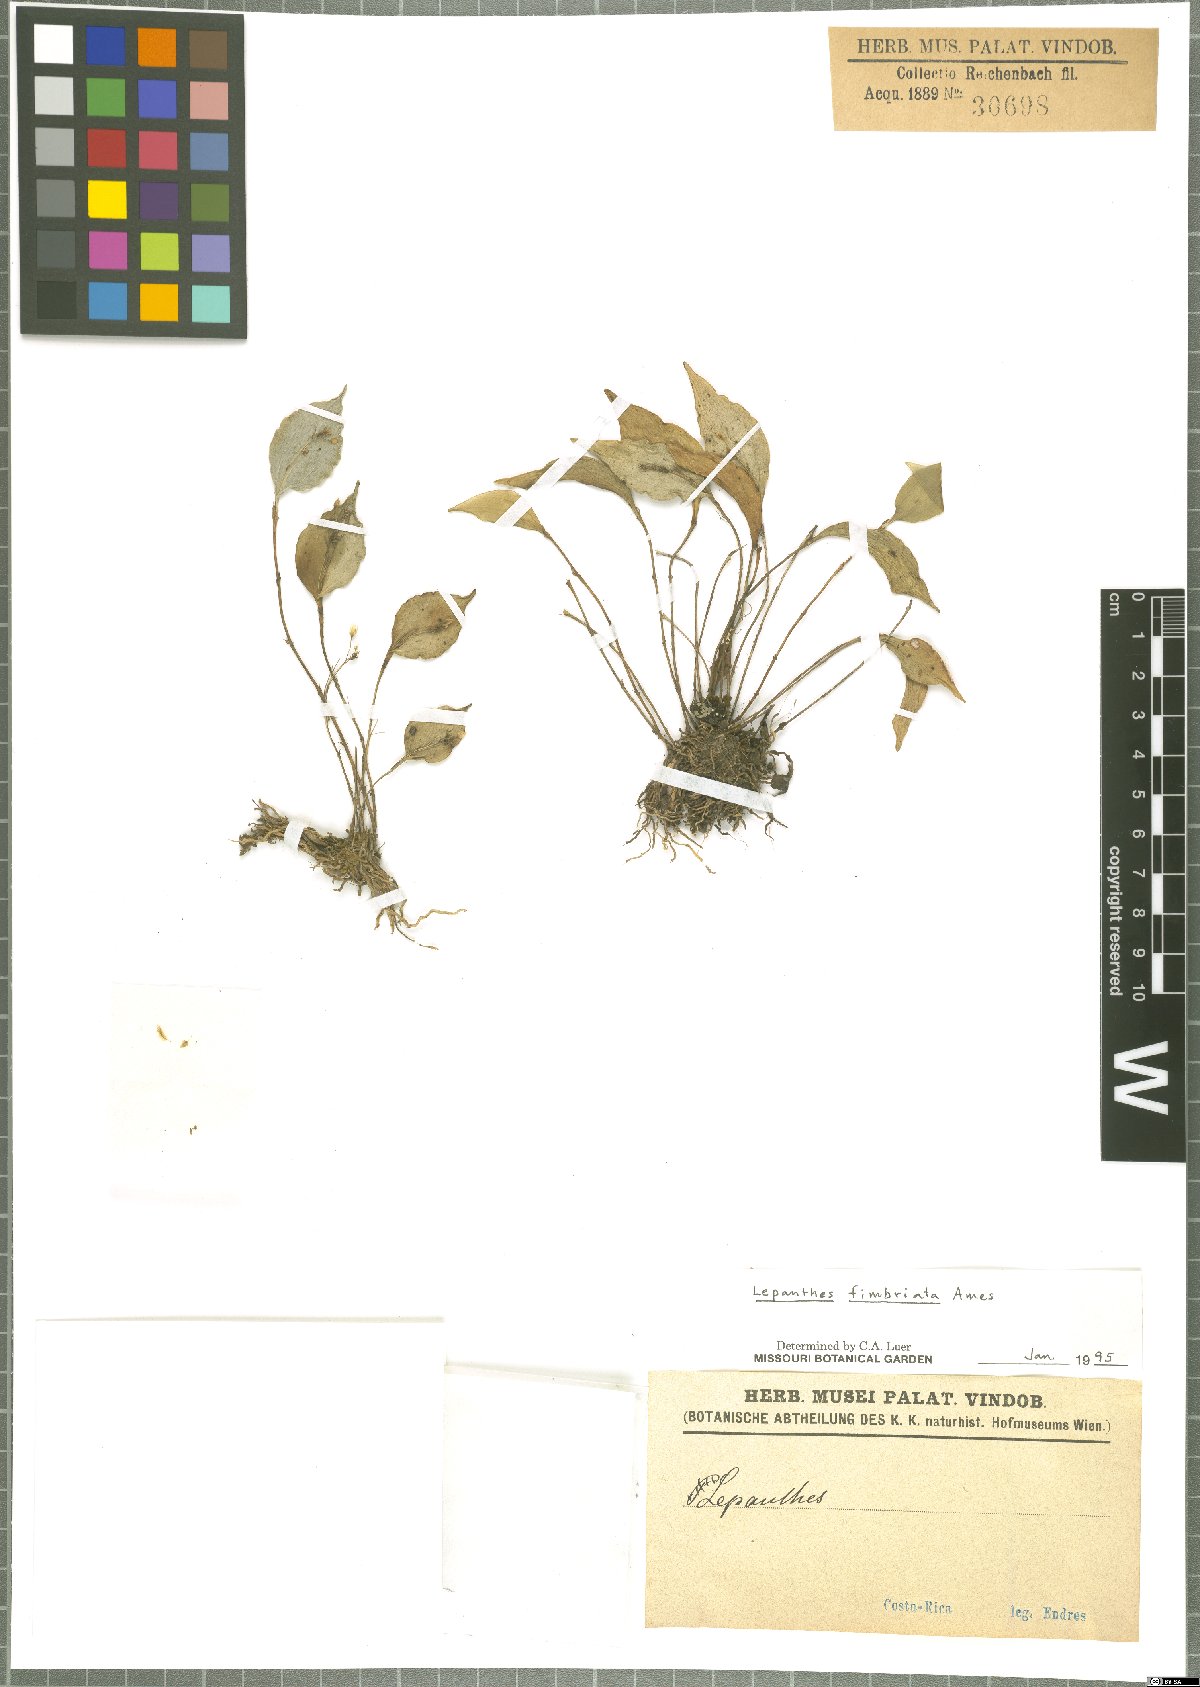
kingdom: Plantae
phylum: Tracheophyta
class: Liliopsida
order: Asparagales
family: Orchidaceae
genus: Lepanthes
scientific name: Lepanthes fimbriata
